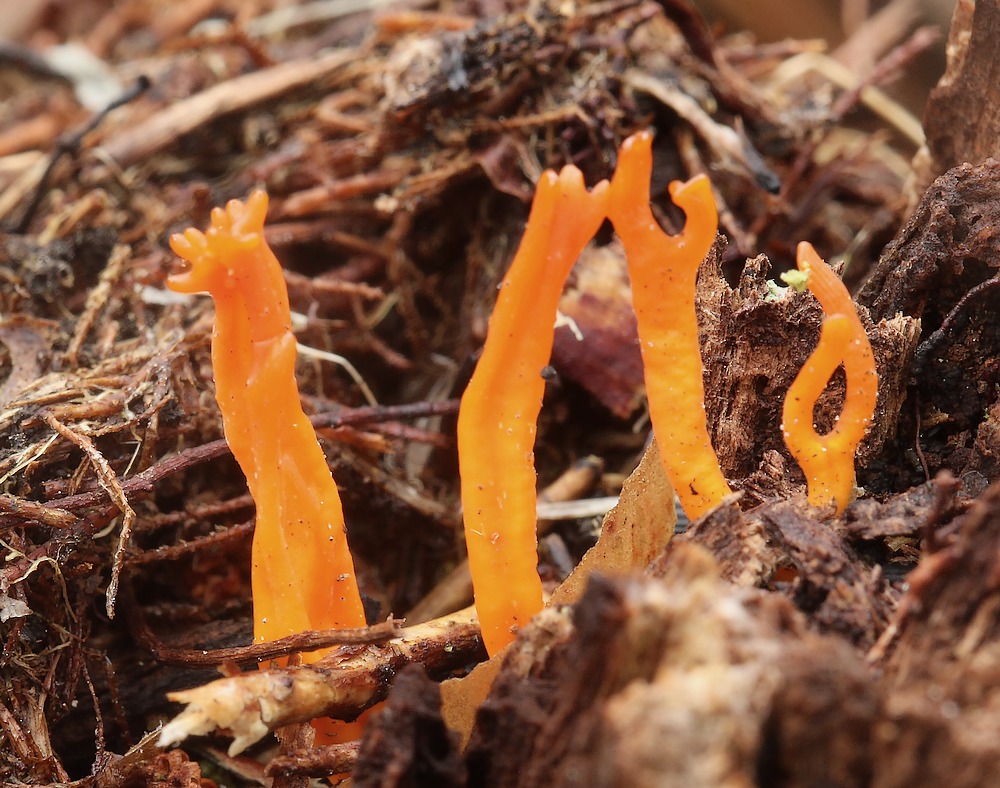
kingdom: Fungi
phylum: Basidiomycota
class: Dacrymycetes
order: Dacrymycetales
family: Dacrymycetaceae
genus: Calocera
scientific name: Calocera furcata
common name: fyrre-guldgaffel
